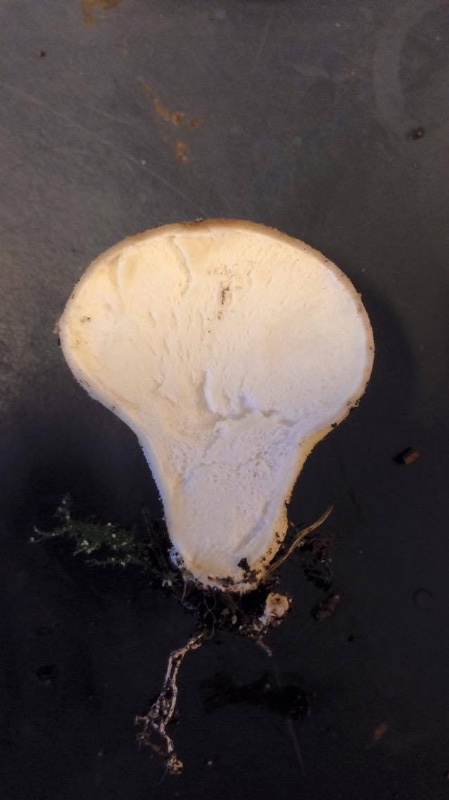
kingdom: Fungi
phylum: Basidiomycota
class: Agaricomycetes
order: Agaricales
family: Lycoperdaceae
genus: Apioperdon
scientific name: Apioperdon pyriforme
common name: pære-støvbold
